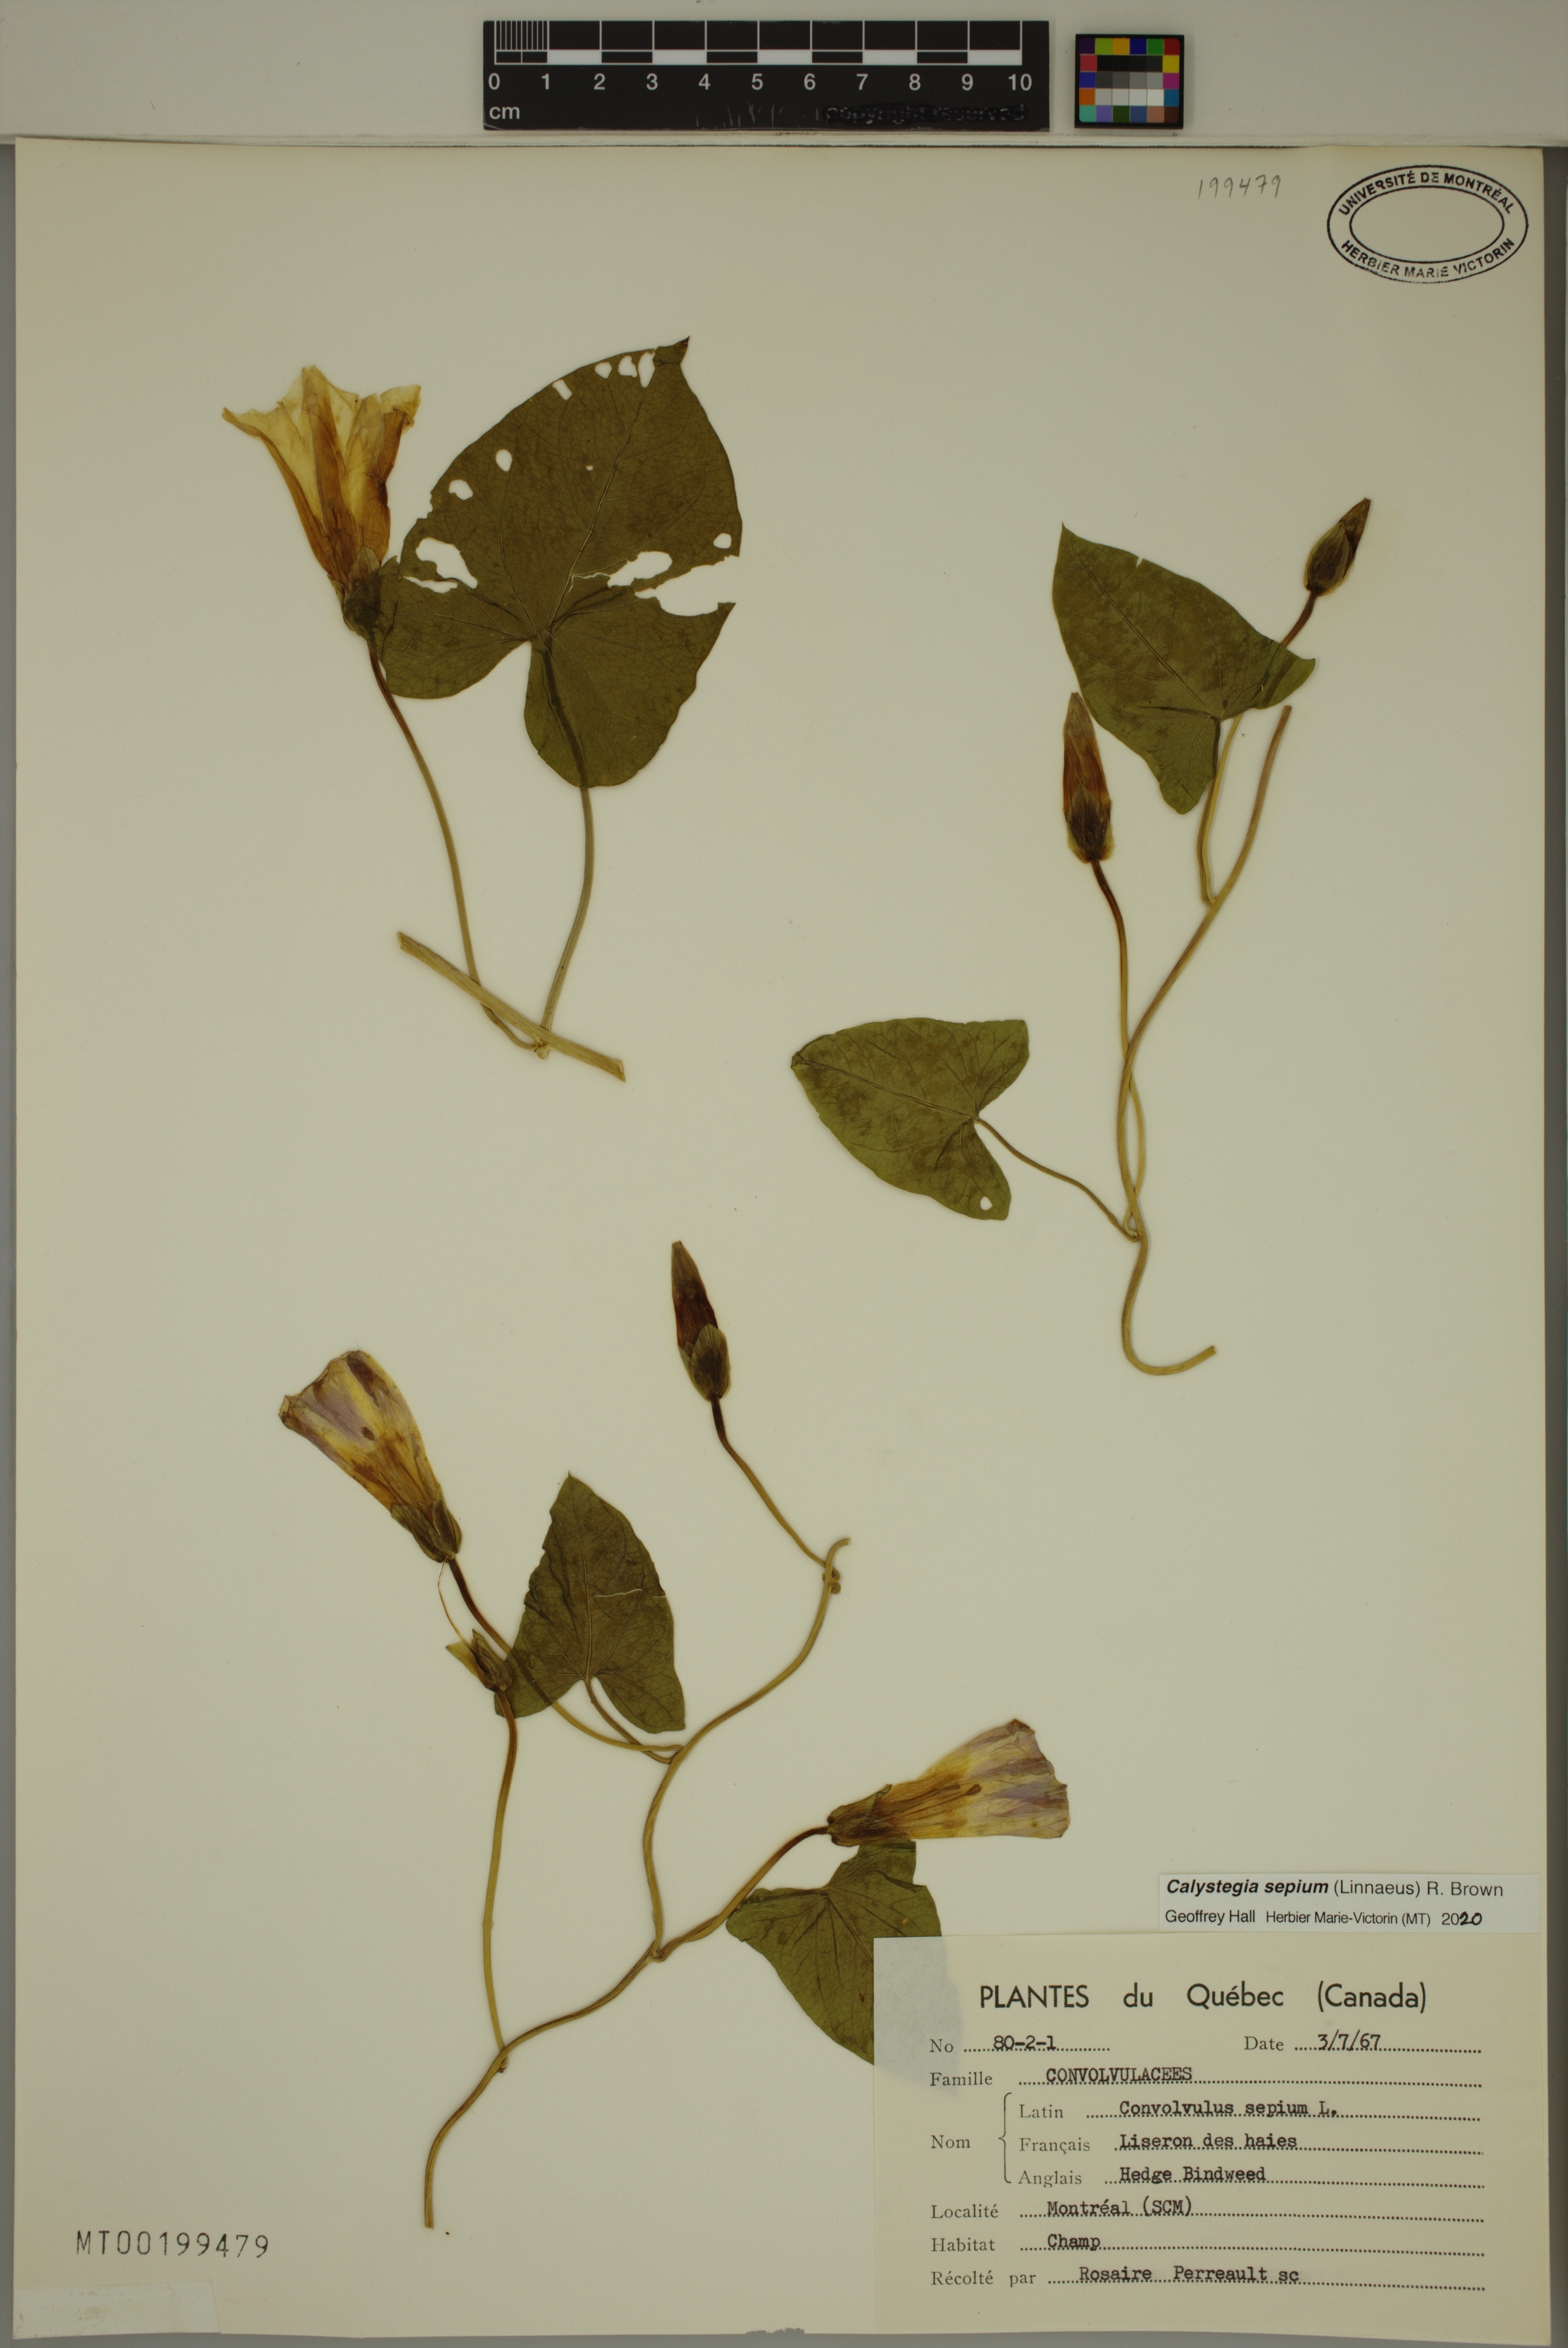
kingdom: Plantae
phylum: Tracheophyta
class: Magnoliopsida
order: Solanales
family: Convolvulaceae
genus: Calystegia
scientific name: Calystegia sepium
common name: Hedge bindweed
